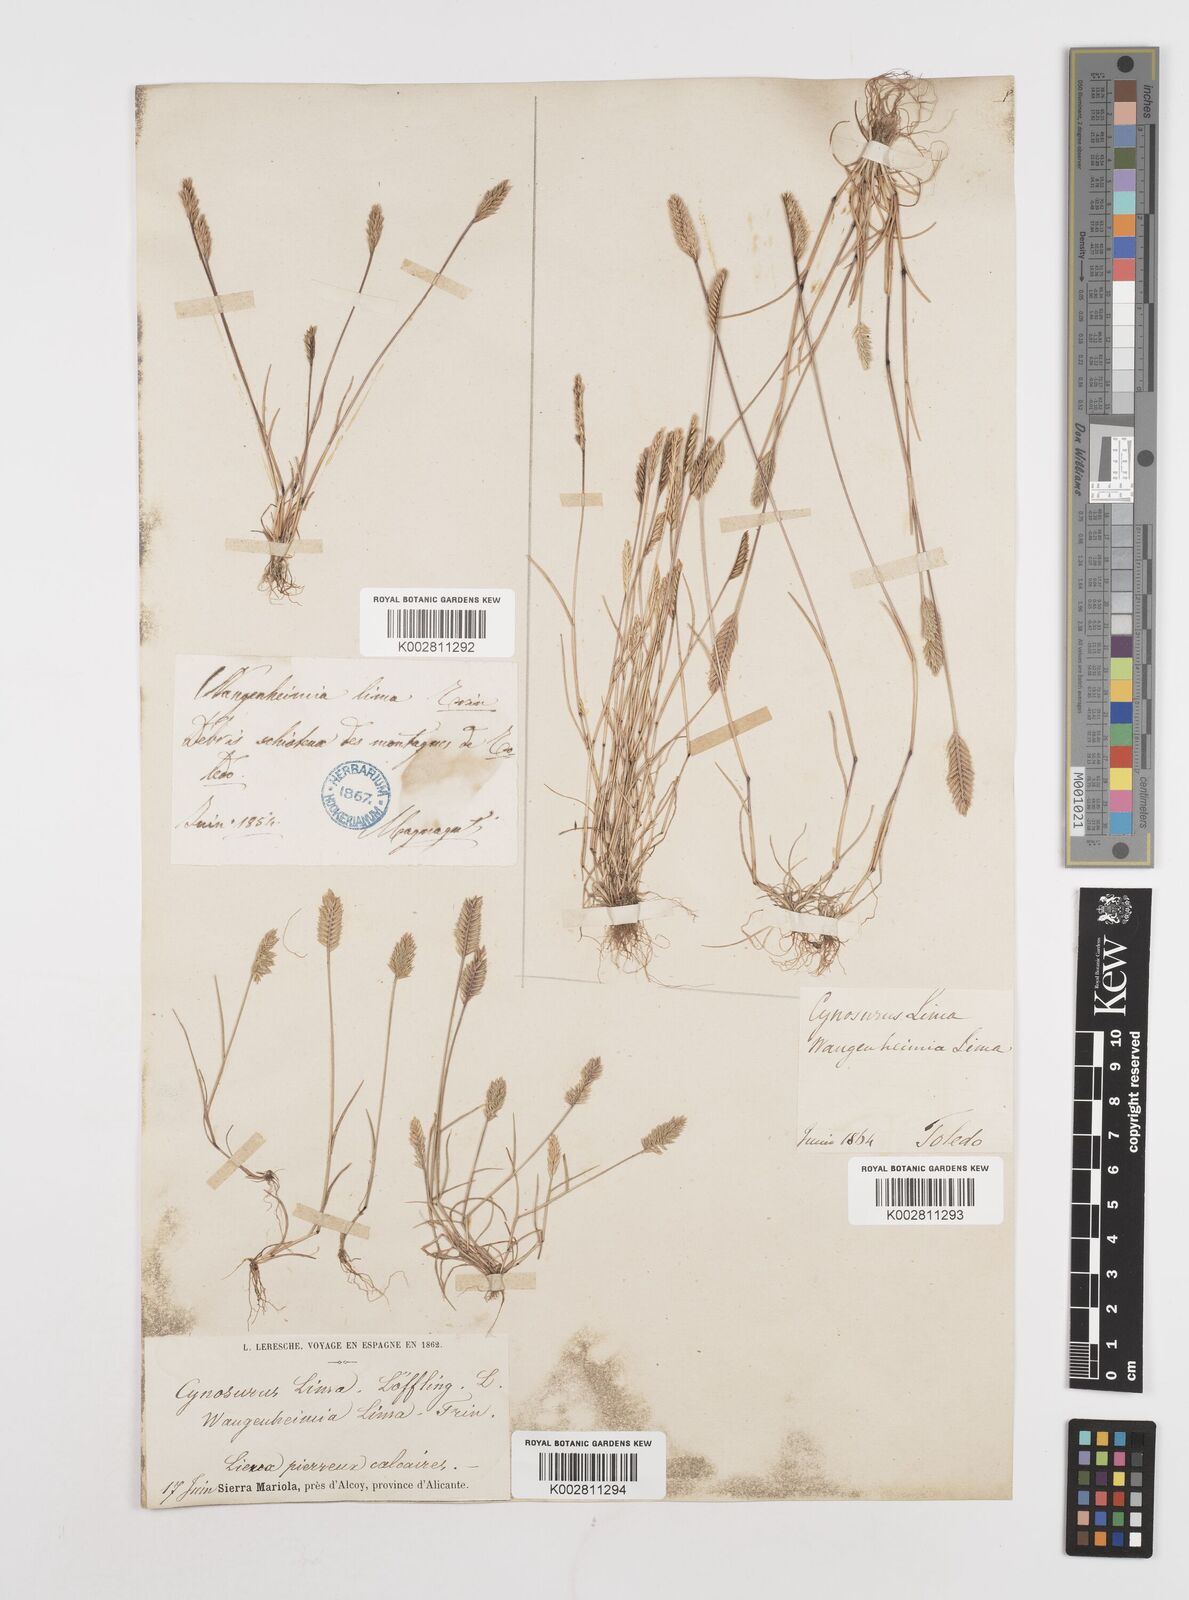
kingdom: Plantae
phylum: Tracheophyta
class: Liliopsida
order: Poales
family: Poaceae
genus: Wangenheimia
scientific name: Wangenheimia lima
